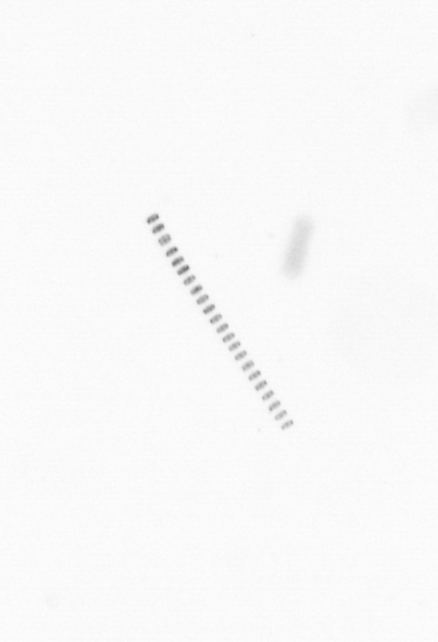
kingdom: Chromista
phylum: Ochrophyta
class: Bacillariophyceae
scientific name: Bacillariophyceae
